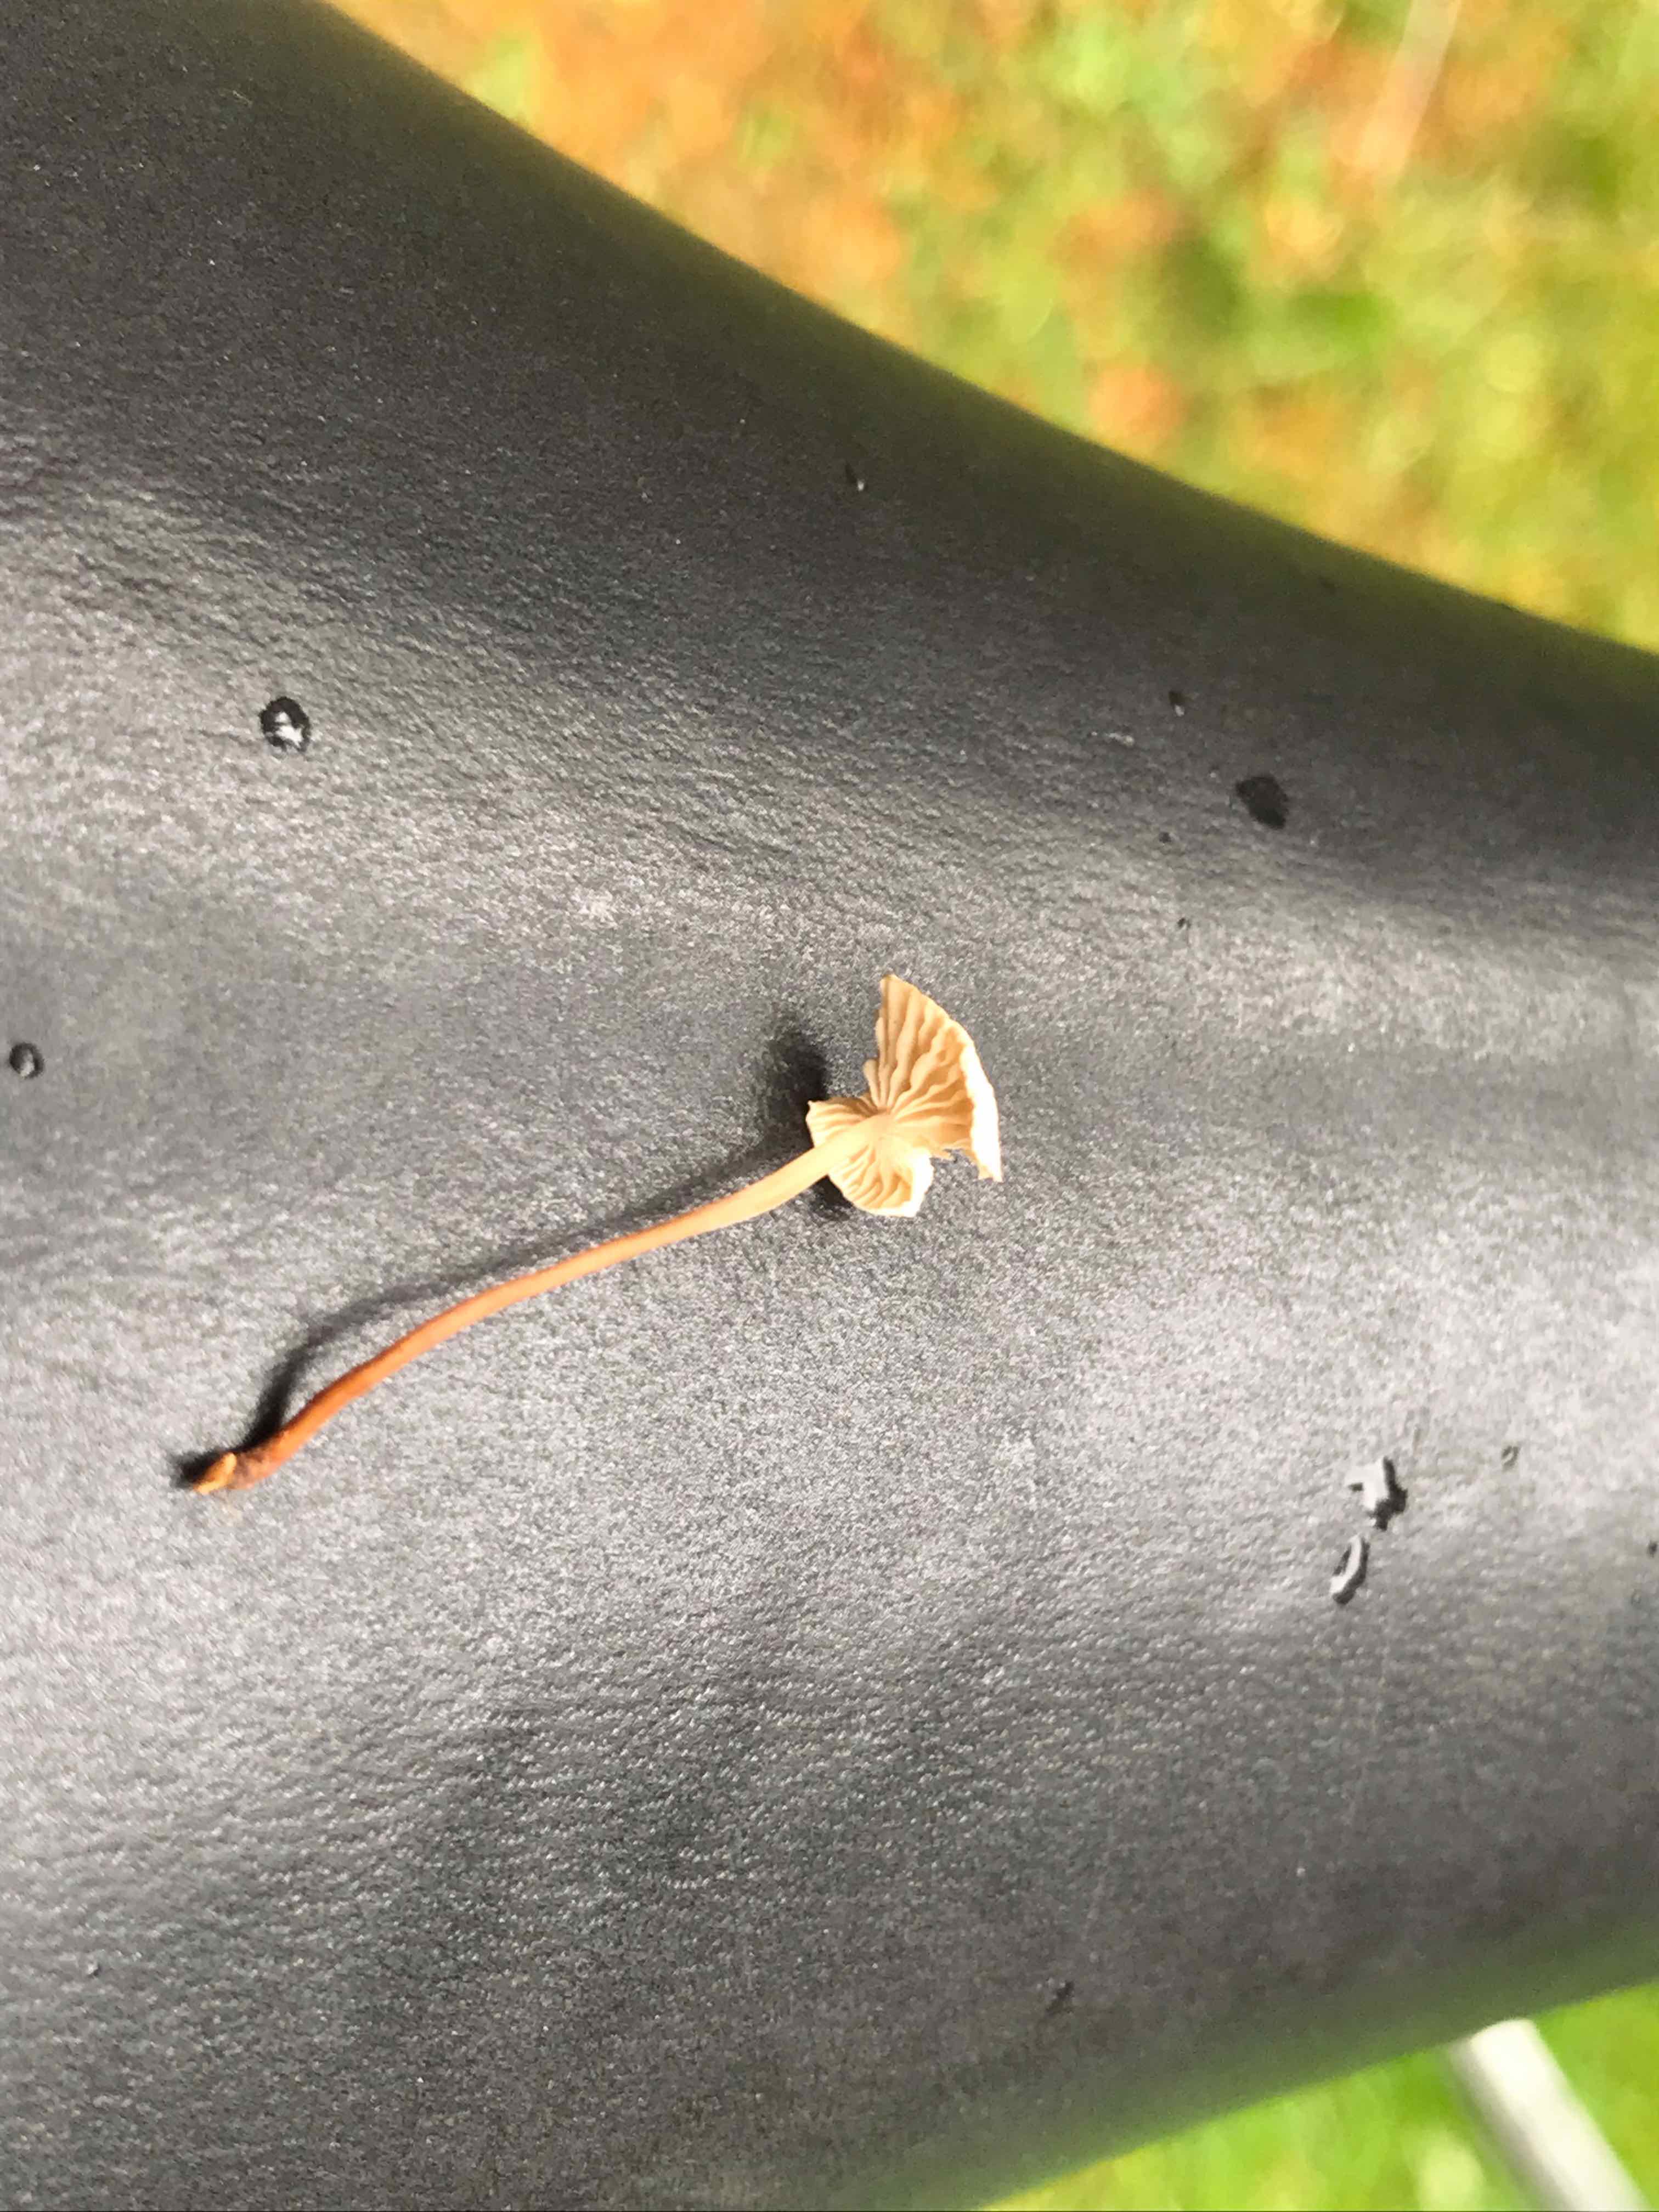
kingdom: Fungi
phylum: Basidiomycota
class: Agaricomycetes
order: Agaricales
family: Omphalotaceae
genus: Collybiopsis
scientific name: Collybiopsis vaillantii
